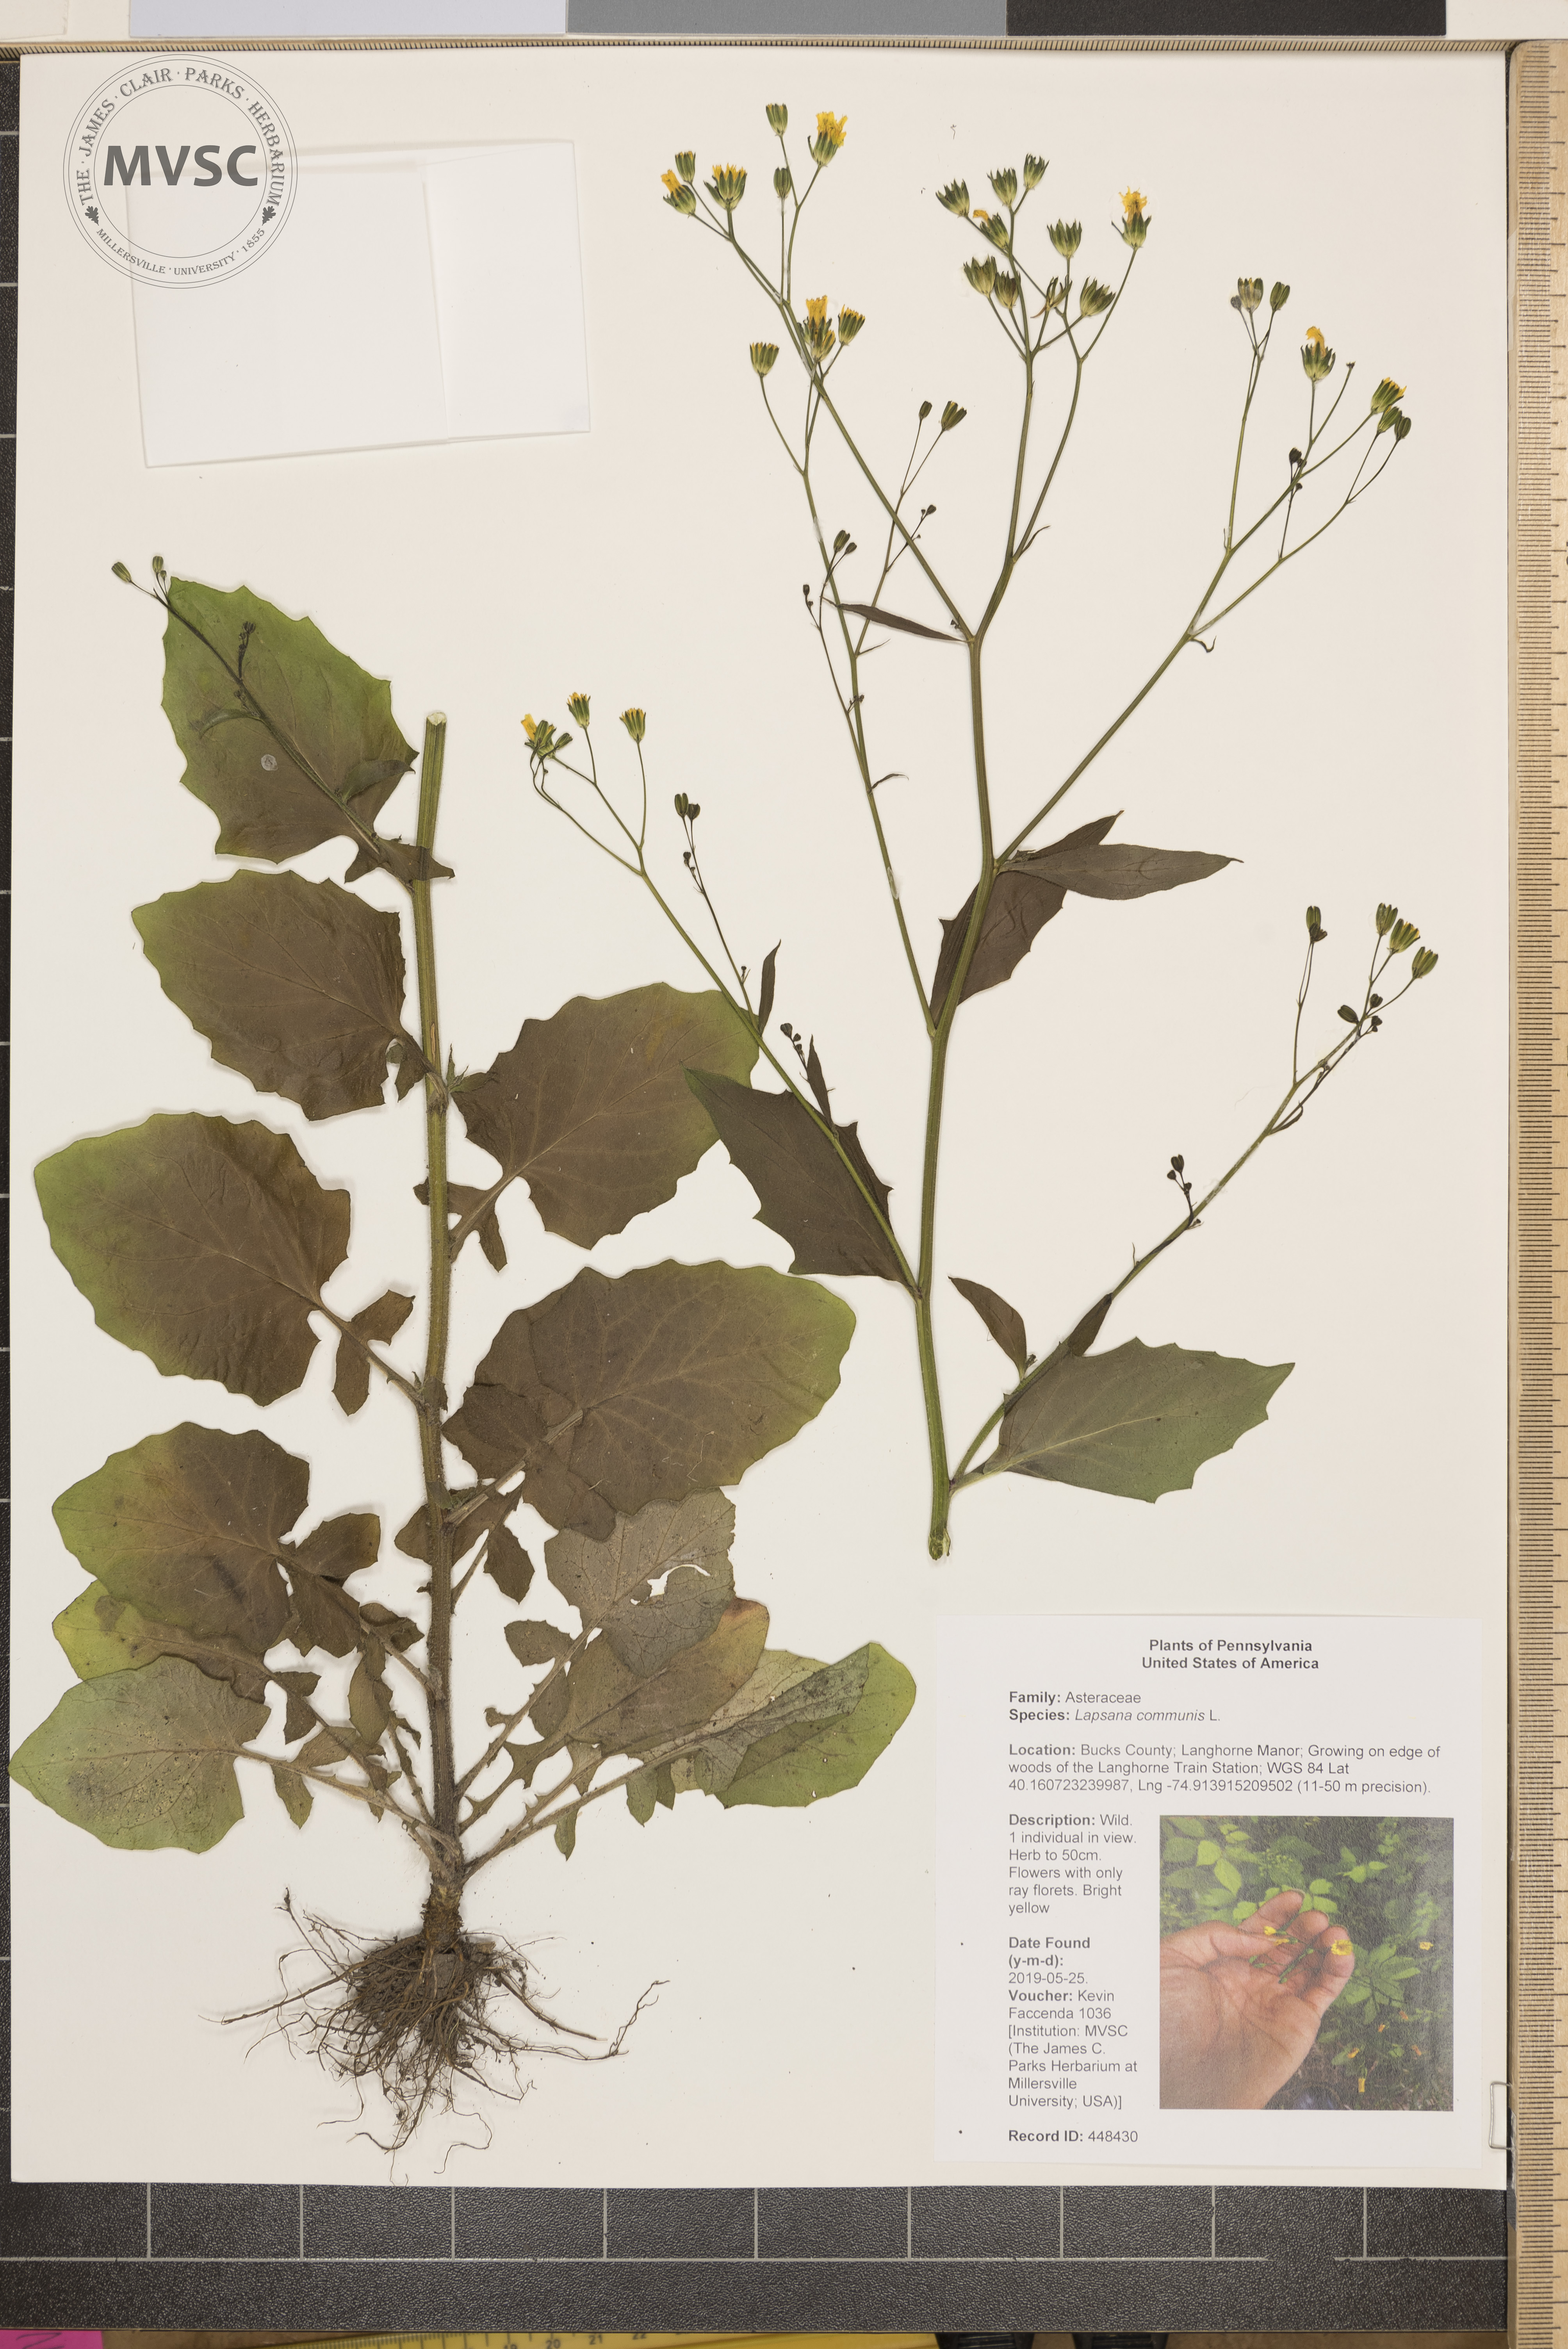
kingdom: Plantae
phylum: Tracheophyta
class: Magnoliopsida
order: Asterales
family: Asteraceae
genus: Lapsana
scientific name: Lapsana communis
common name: Nipplewort
